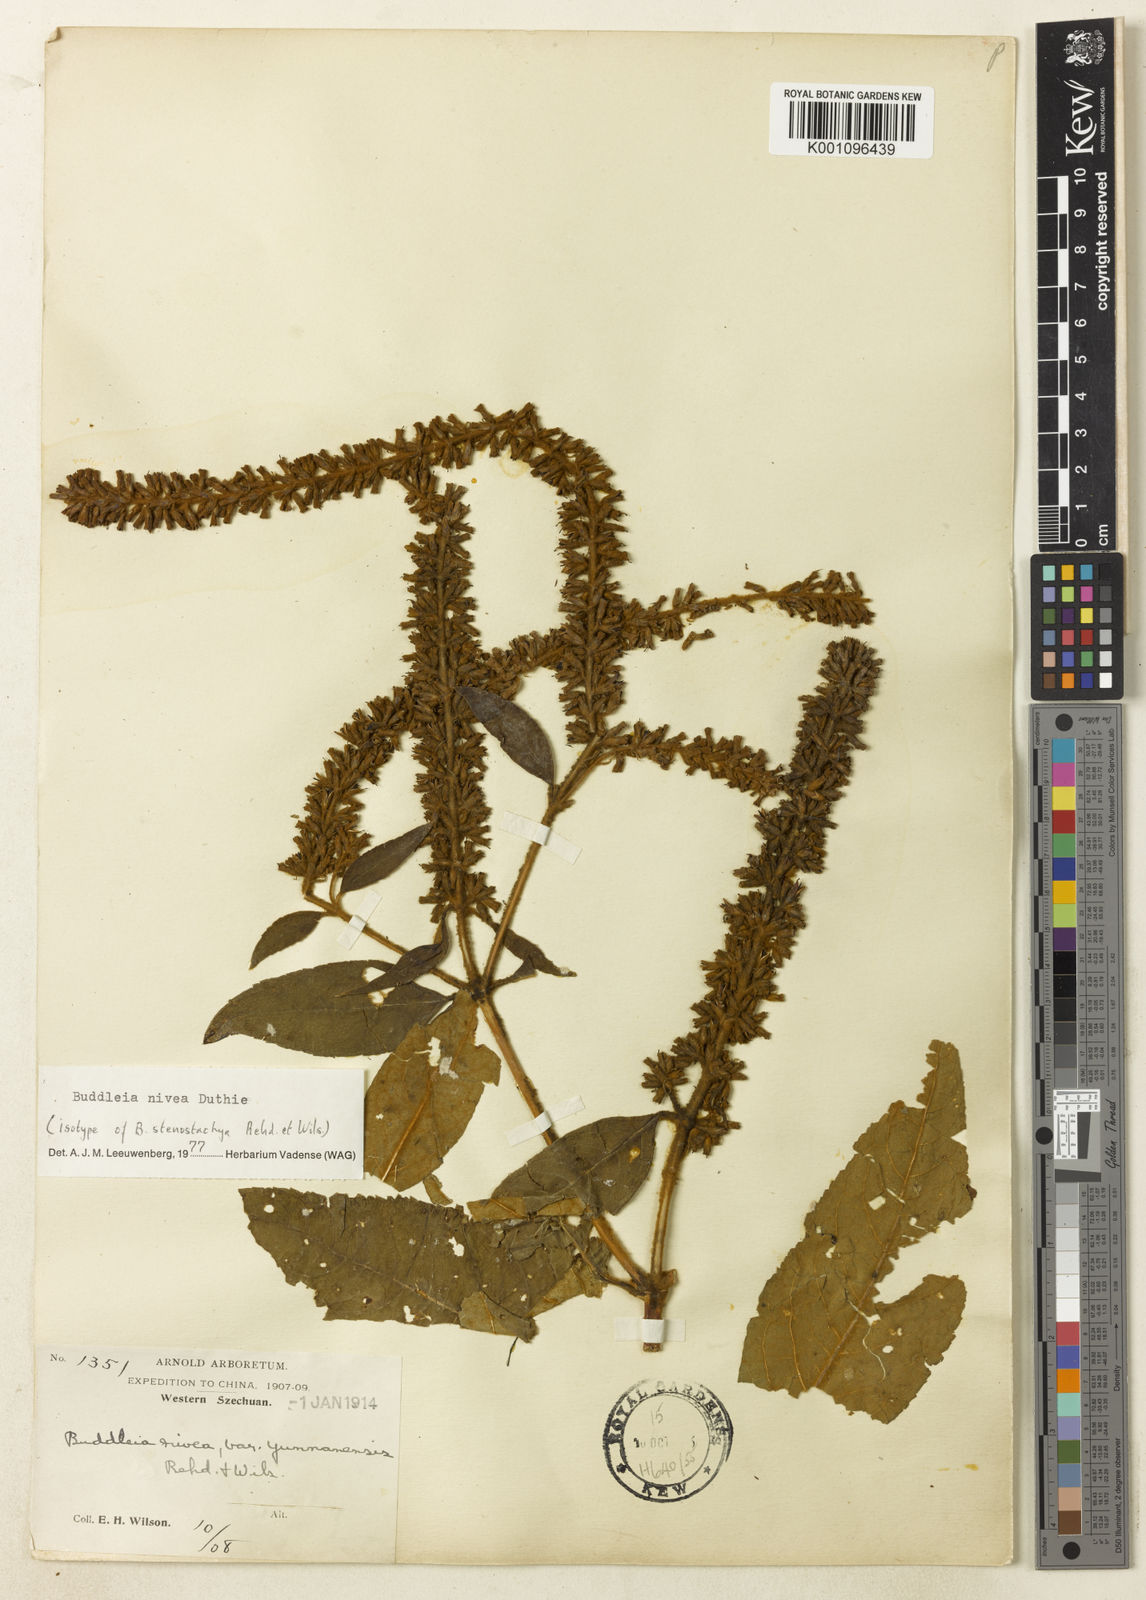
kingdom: Plantae
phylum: Tracheophyta
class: Magnoliopsida
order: Lamiales
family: Scrophulariaceae
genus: Buddleja
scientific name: Buddleja nivea
